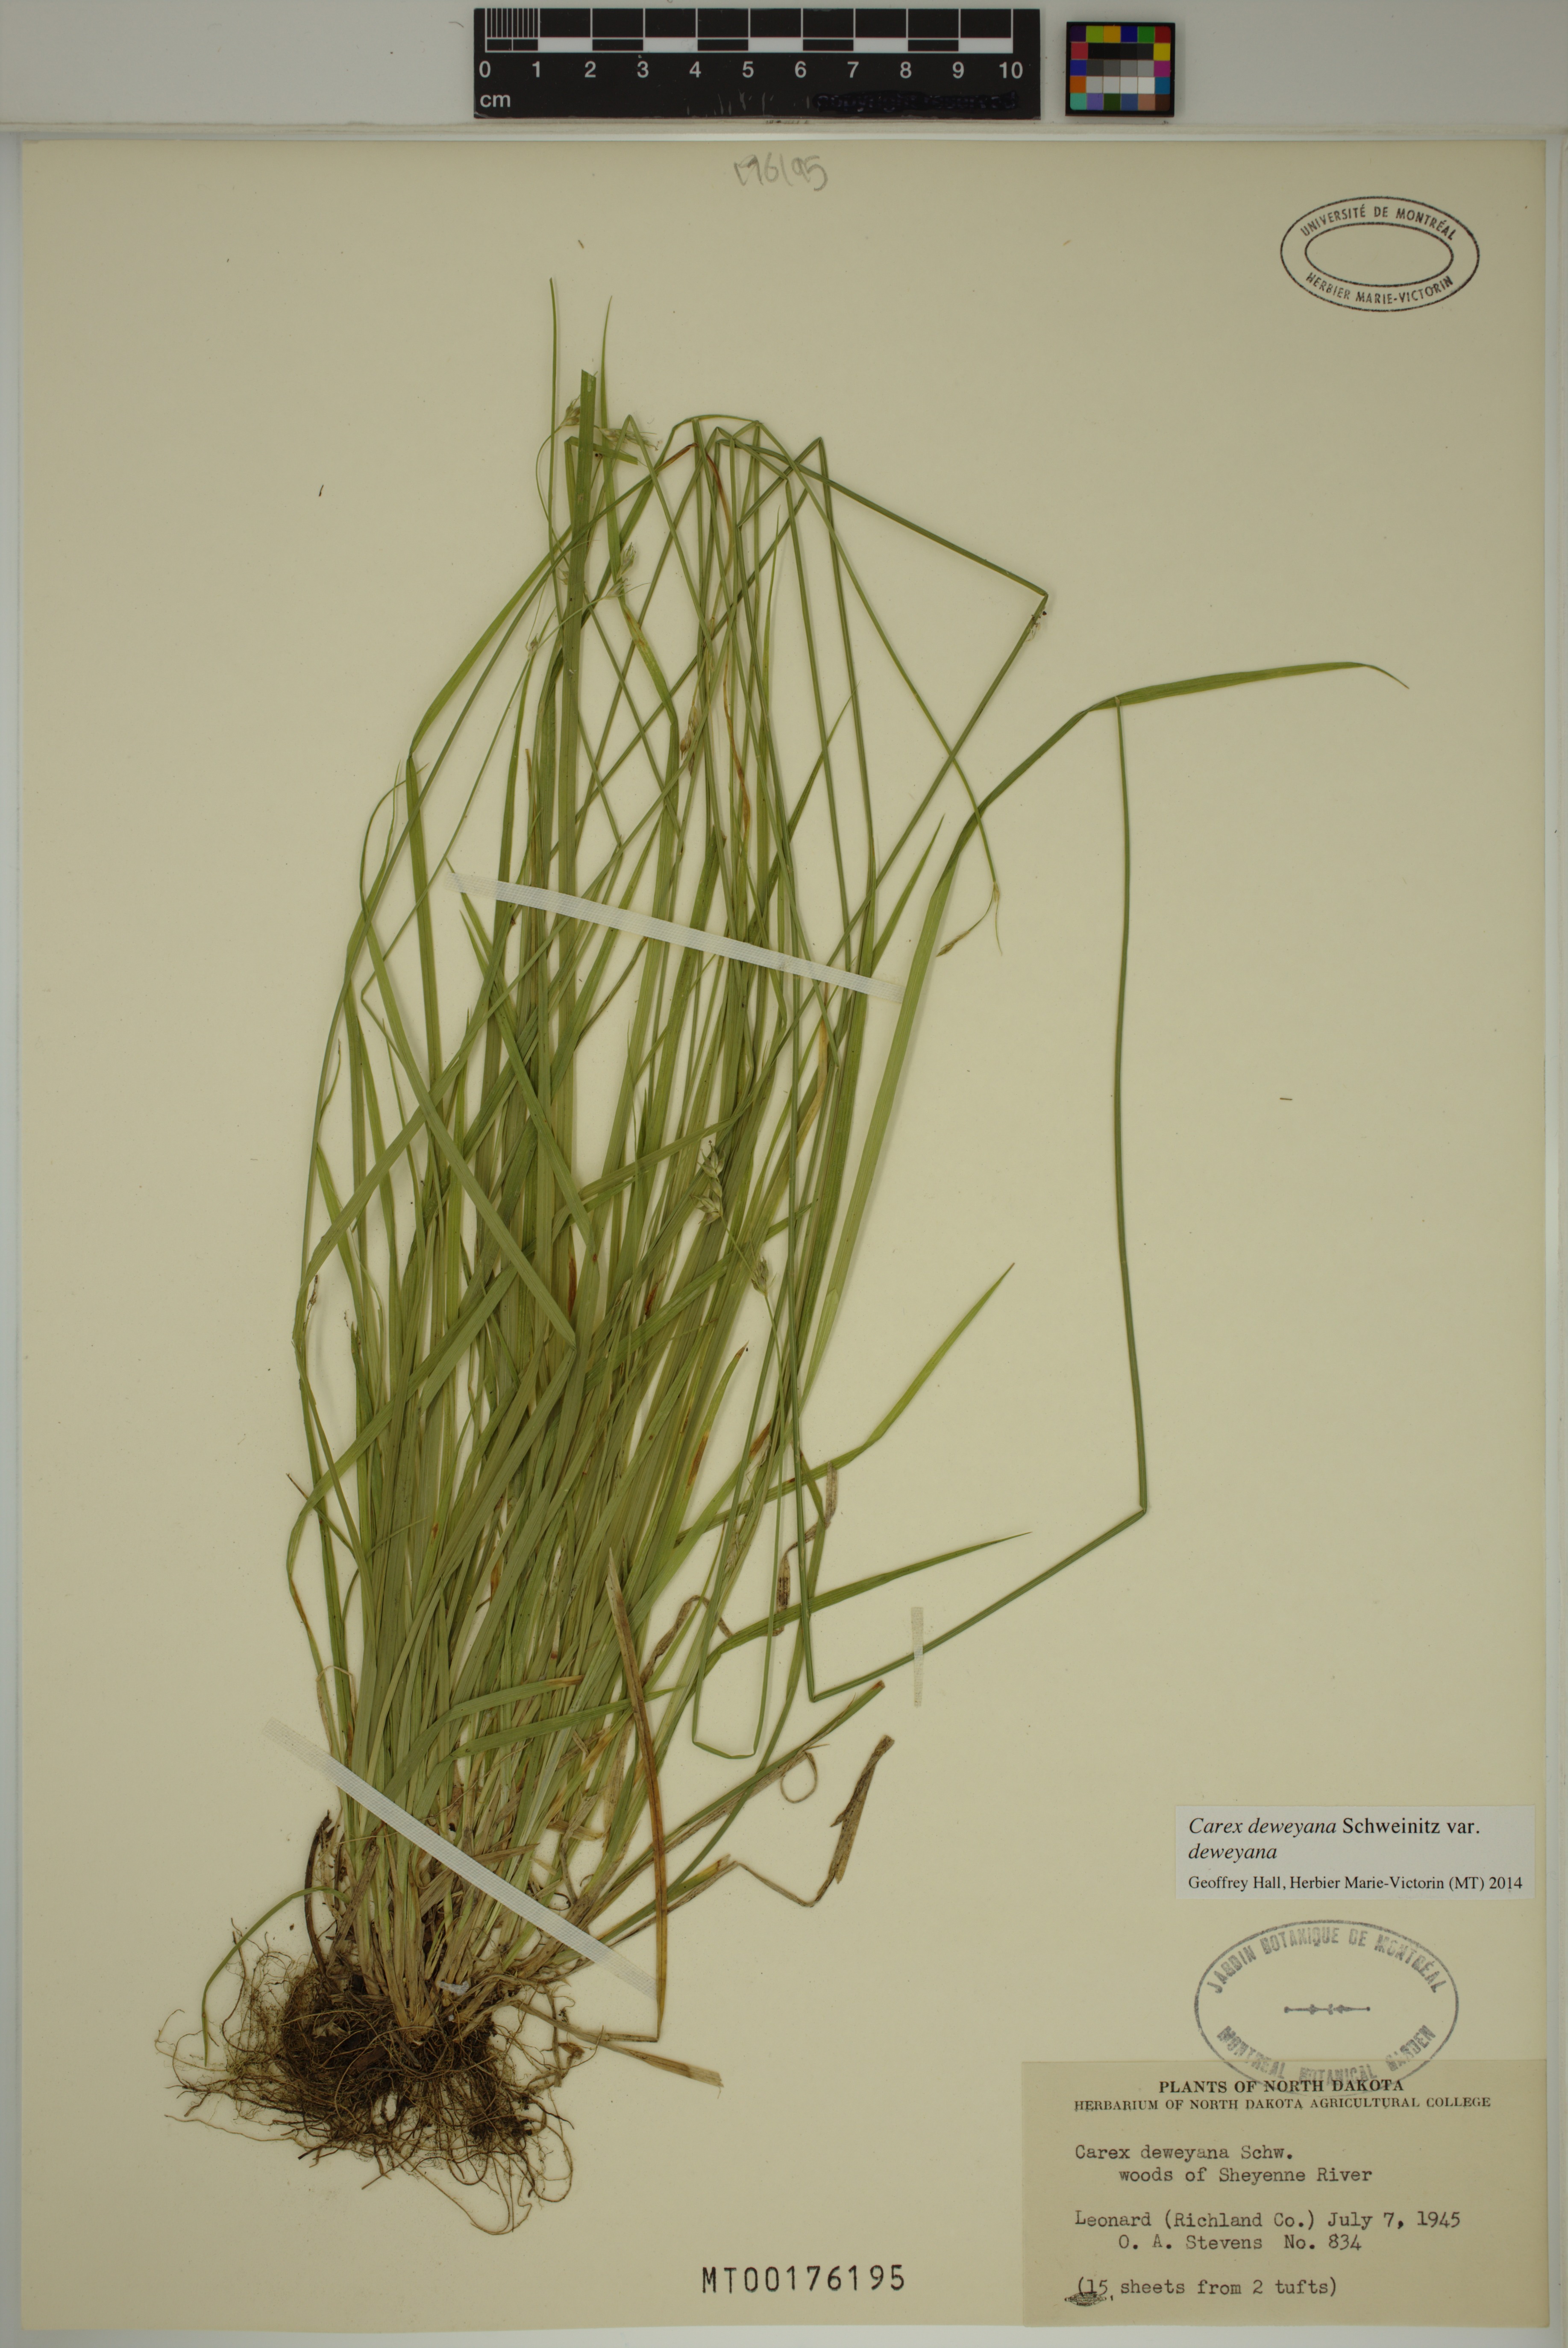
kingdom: Plantae
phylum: Tracheophyta
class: Liliopsida
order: Poales
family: Cyperaceae
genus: Carex
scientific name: Carex deweyana
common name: Dewey's sedge
